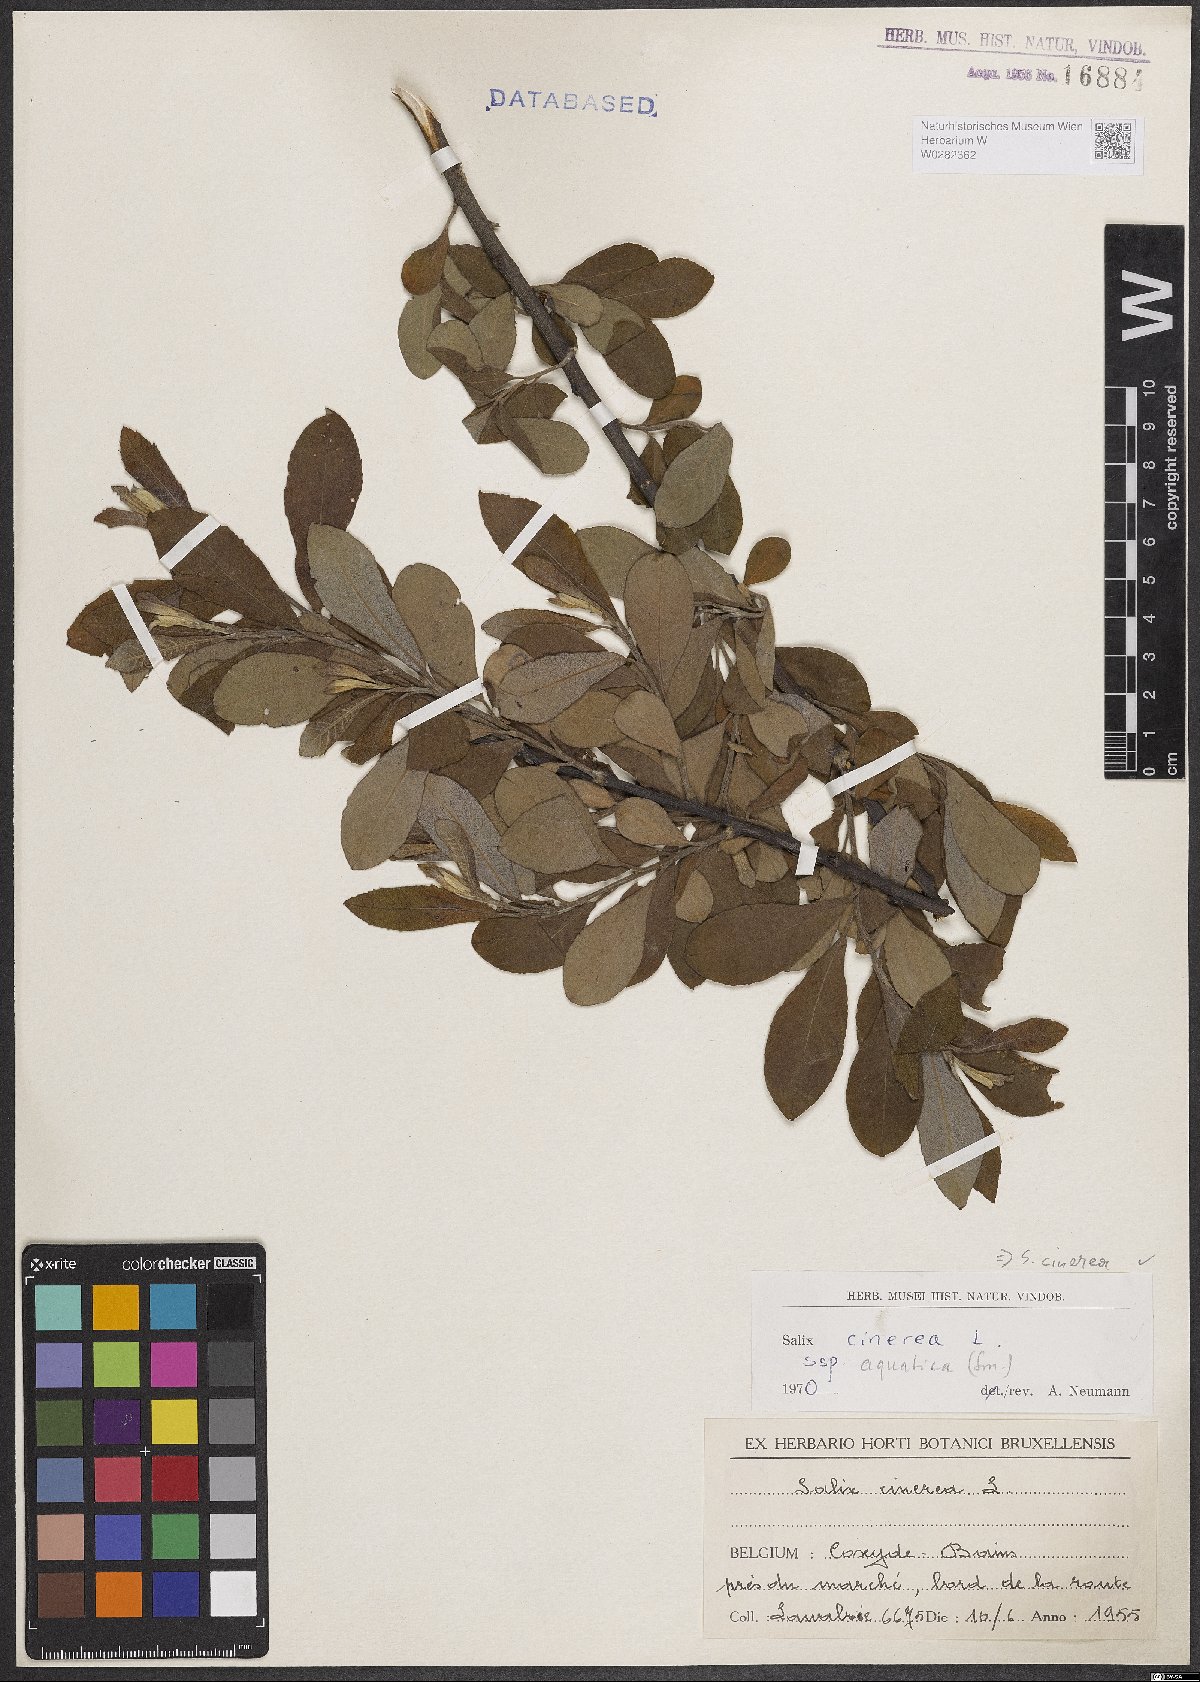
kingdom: Plantae
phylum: Tracheophyta
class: Magnoliopsida
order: Malpighiales
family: Salicaceae
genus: Salix
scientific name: Salix cinerea
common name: Common sallow
